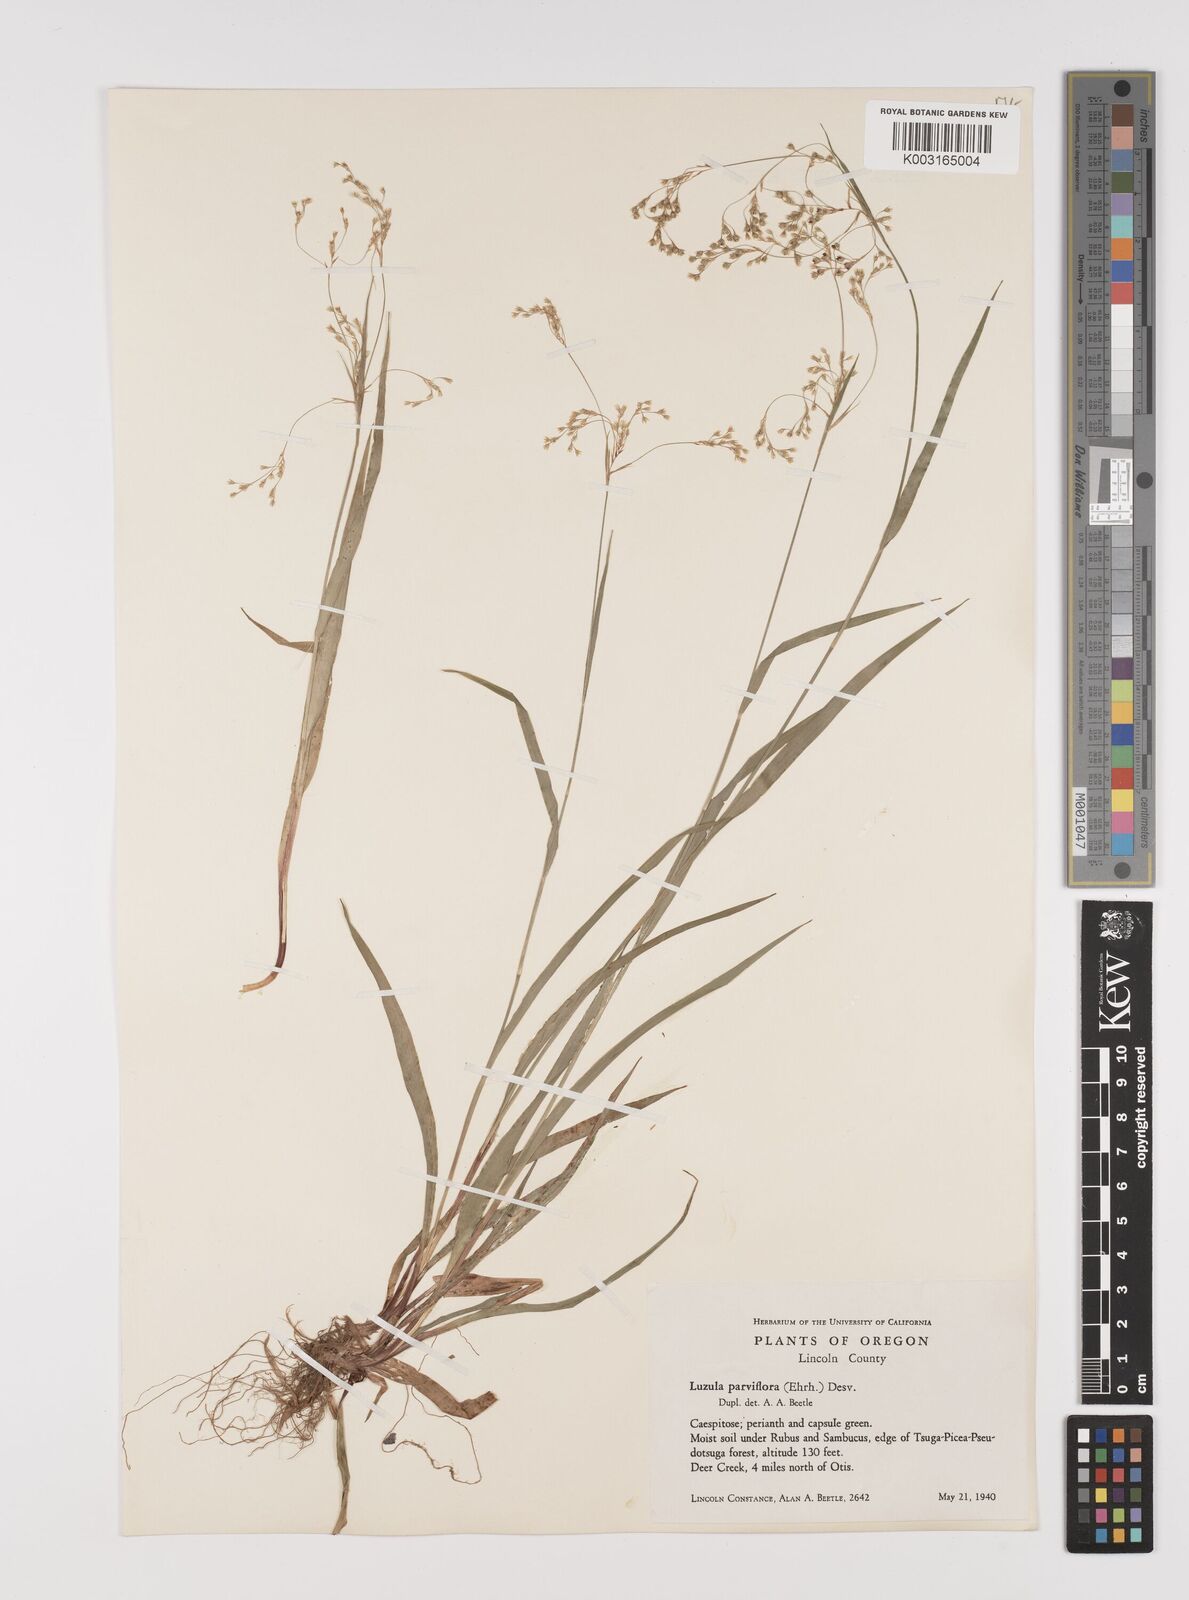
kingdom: Plantae
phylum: Tracheophyta
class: Liliopsida
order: Poales
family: Juncaceae
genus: Luzula
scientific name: Luzula parviflora
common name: Millet woodrush
